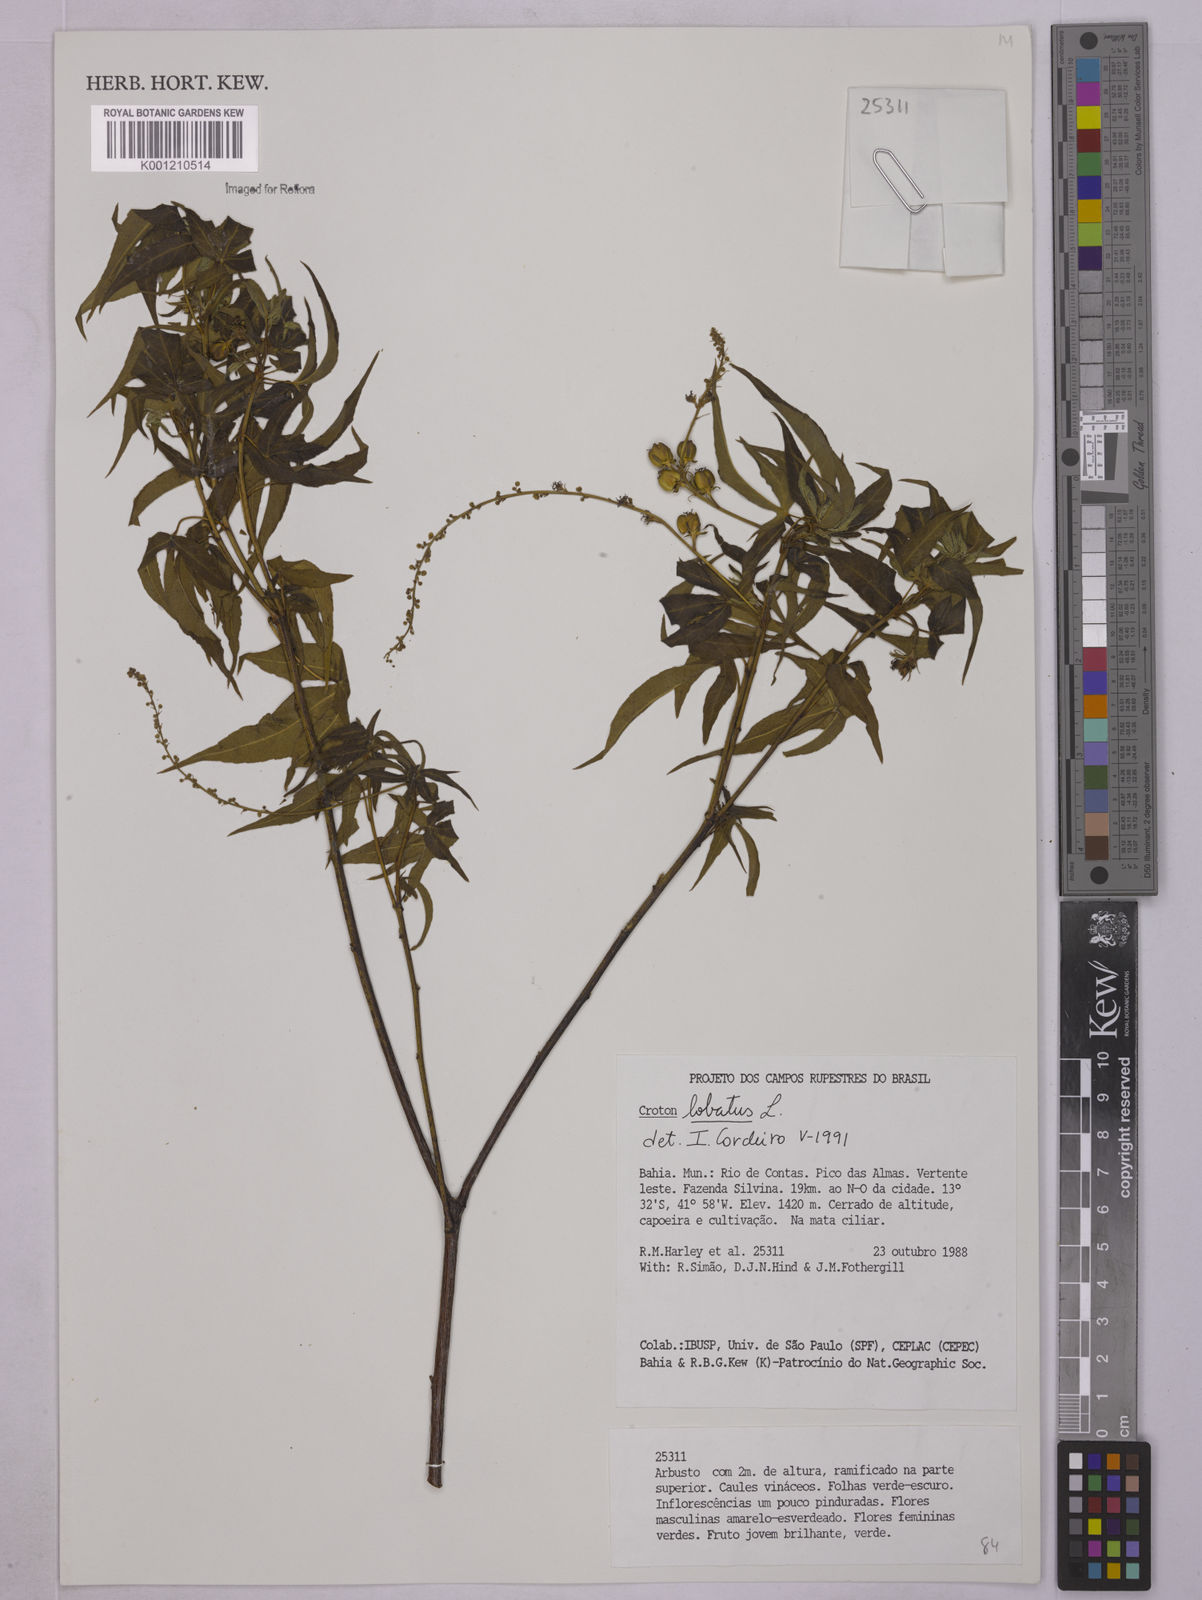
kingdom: Plantae
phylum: Tracheophyta
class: Magnoliopsida
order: Malpighiales
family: Euphorbiaceae
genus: Astraea
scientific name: Astraea lobata
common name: Lobed croton
